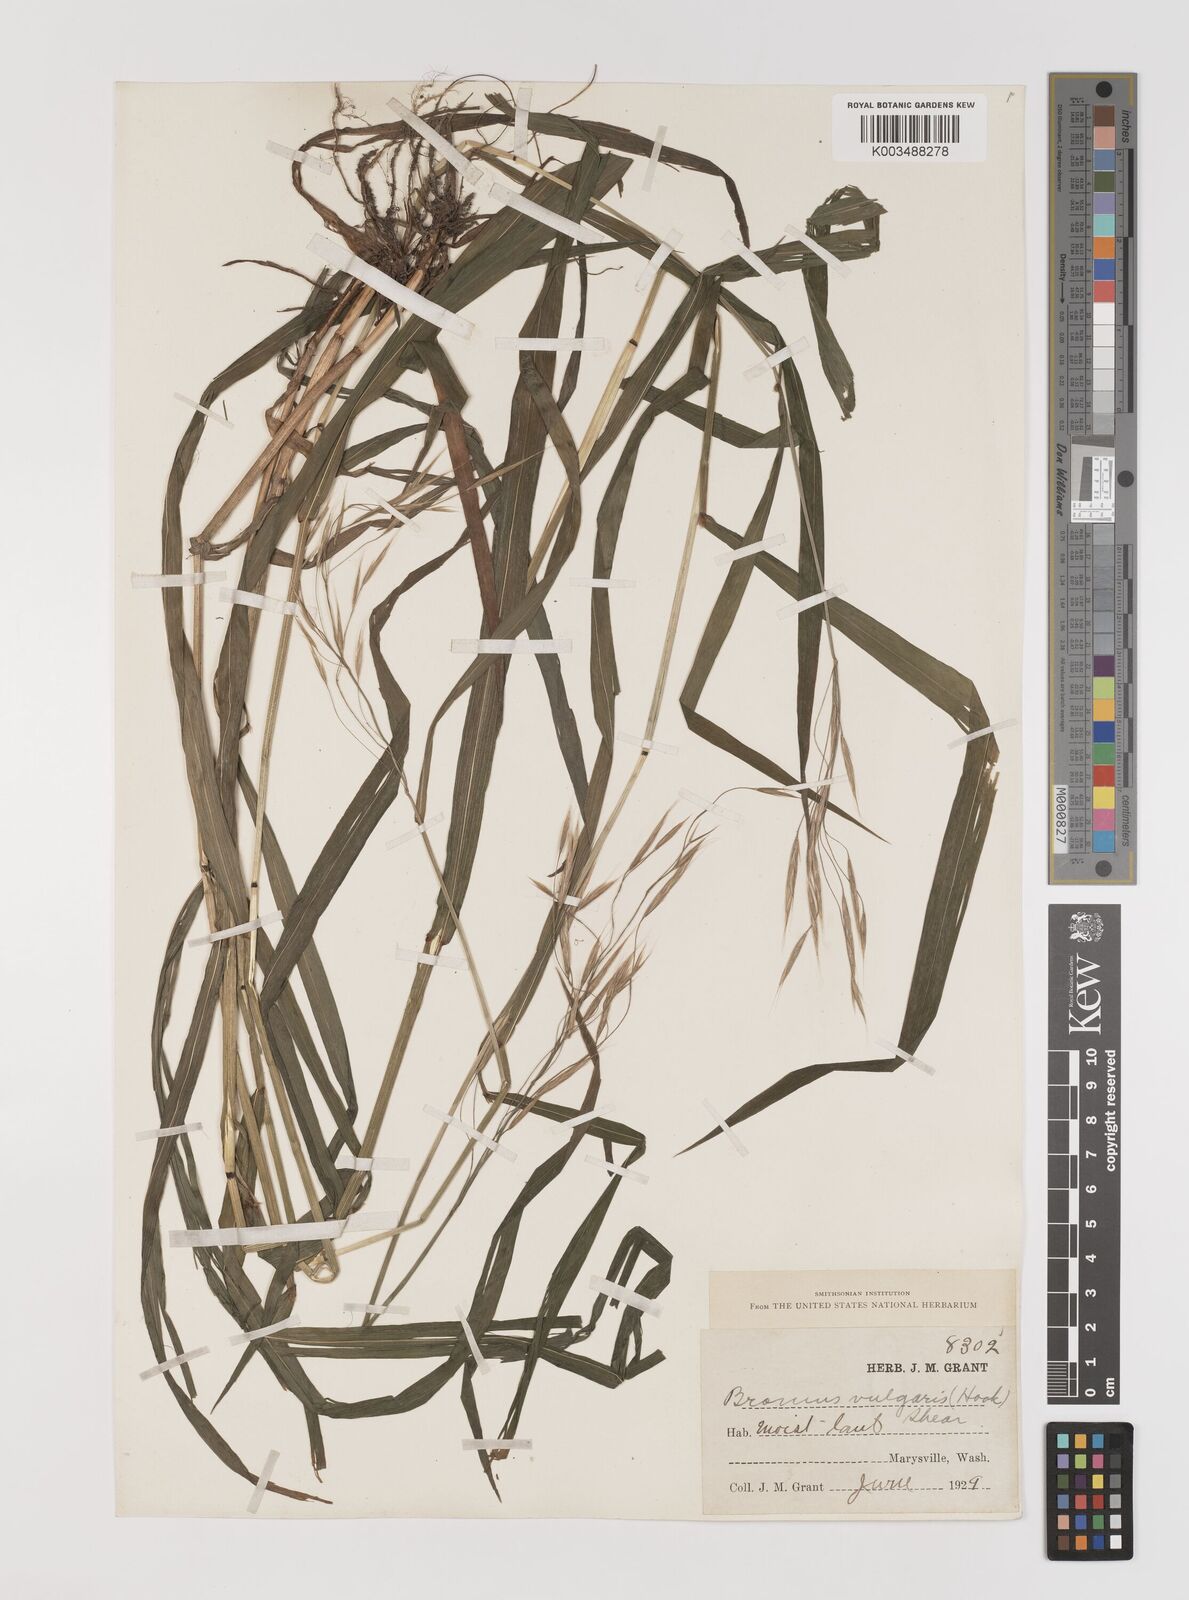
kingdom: Plantae
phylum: Tracheophyta
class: Liliopsida
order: Poales
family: Poaceae
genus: Bromus
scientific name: Bromus vulgaris
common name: Columbia brome
